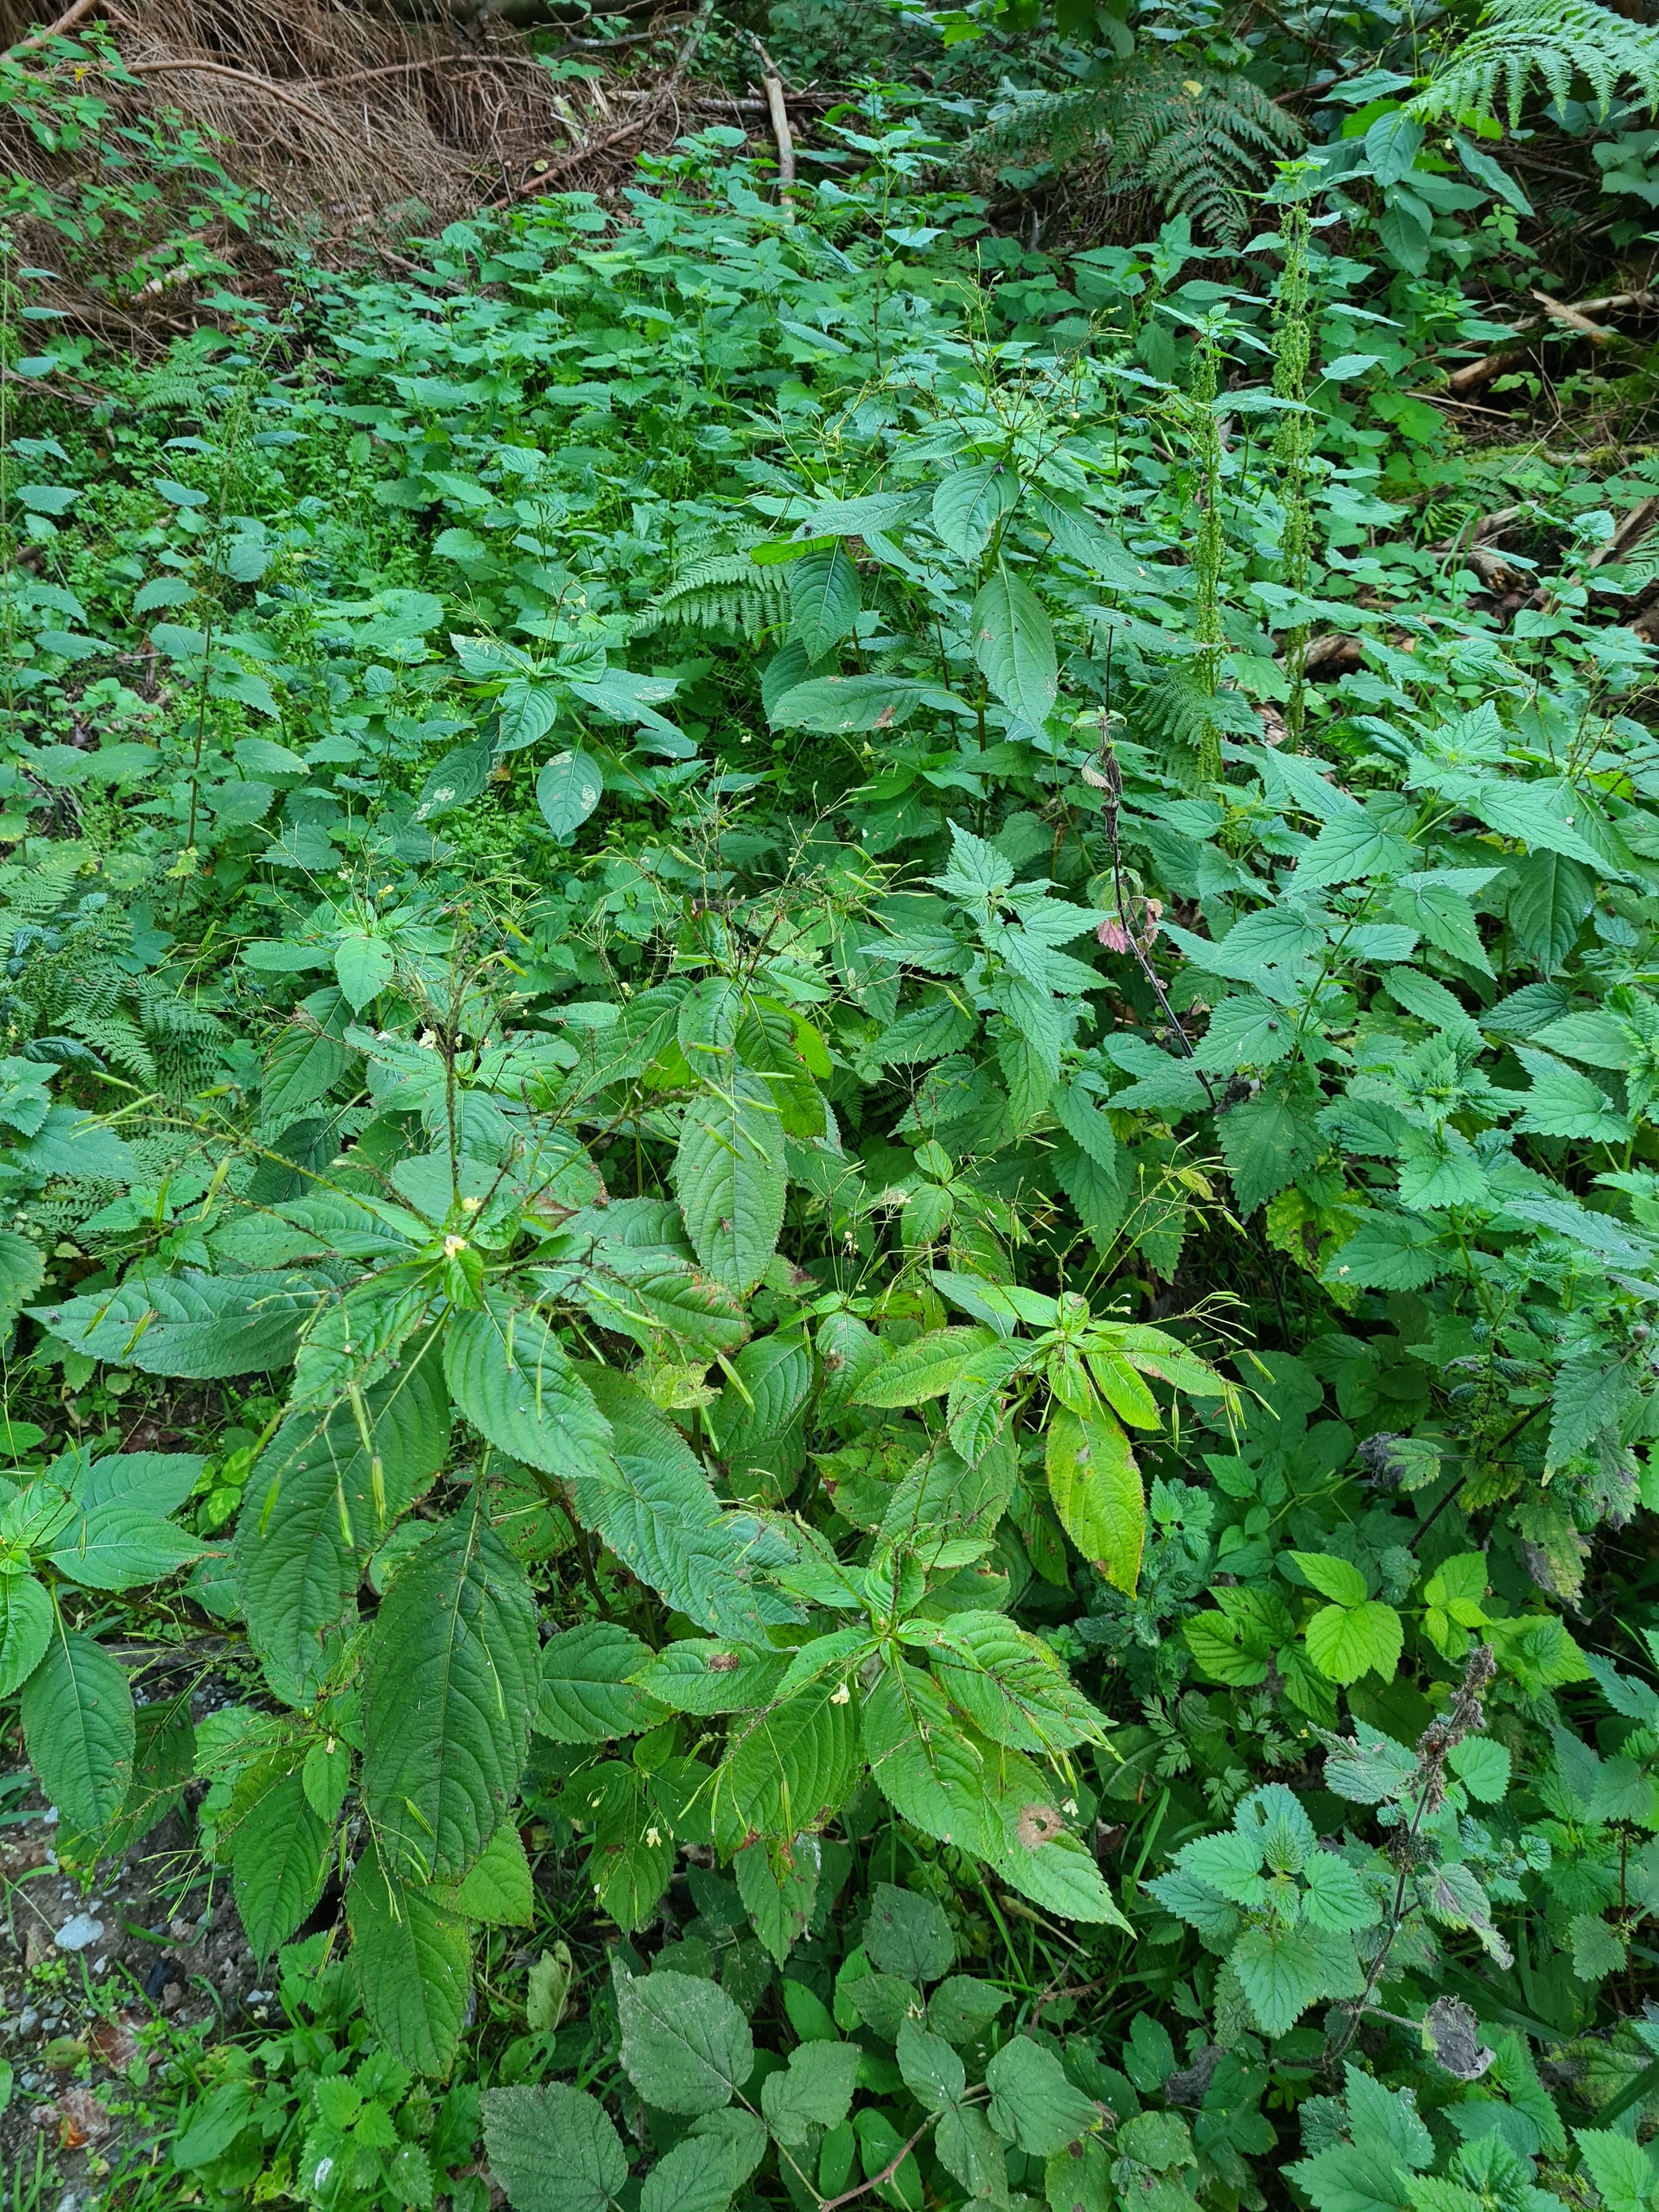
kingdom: Plantae
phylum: Tracheophyta
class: Magnoliopsida
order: Ericales
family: Balsaminaceae
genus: Impatiens
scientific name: Impatiens parviflora
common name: Småblomstret balsamin
